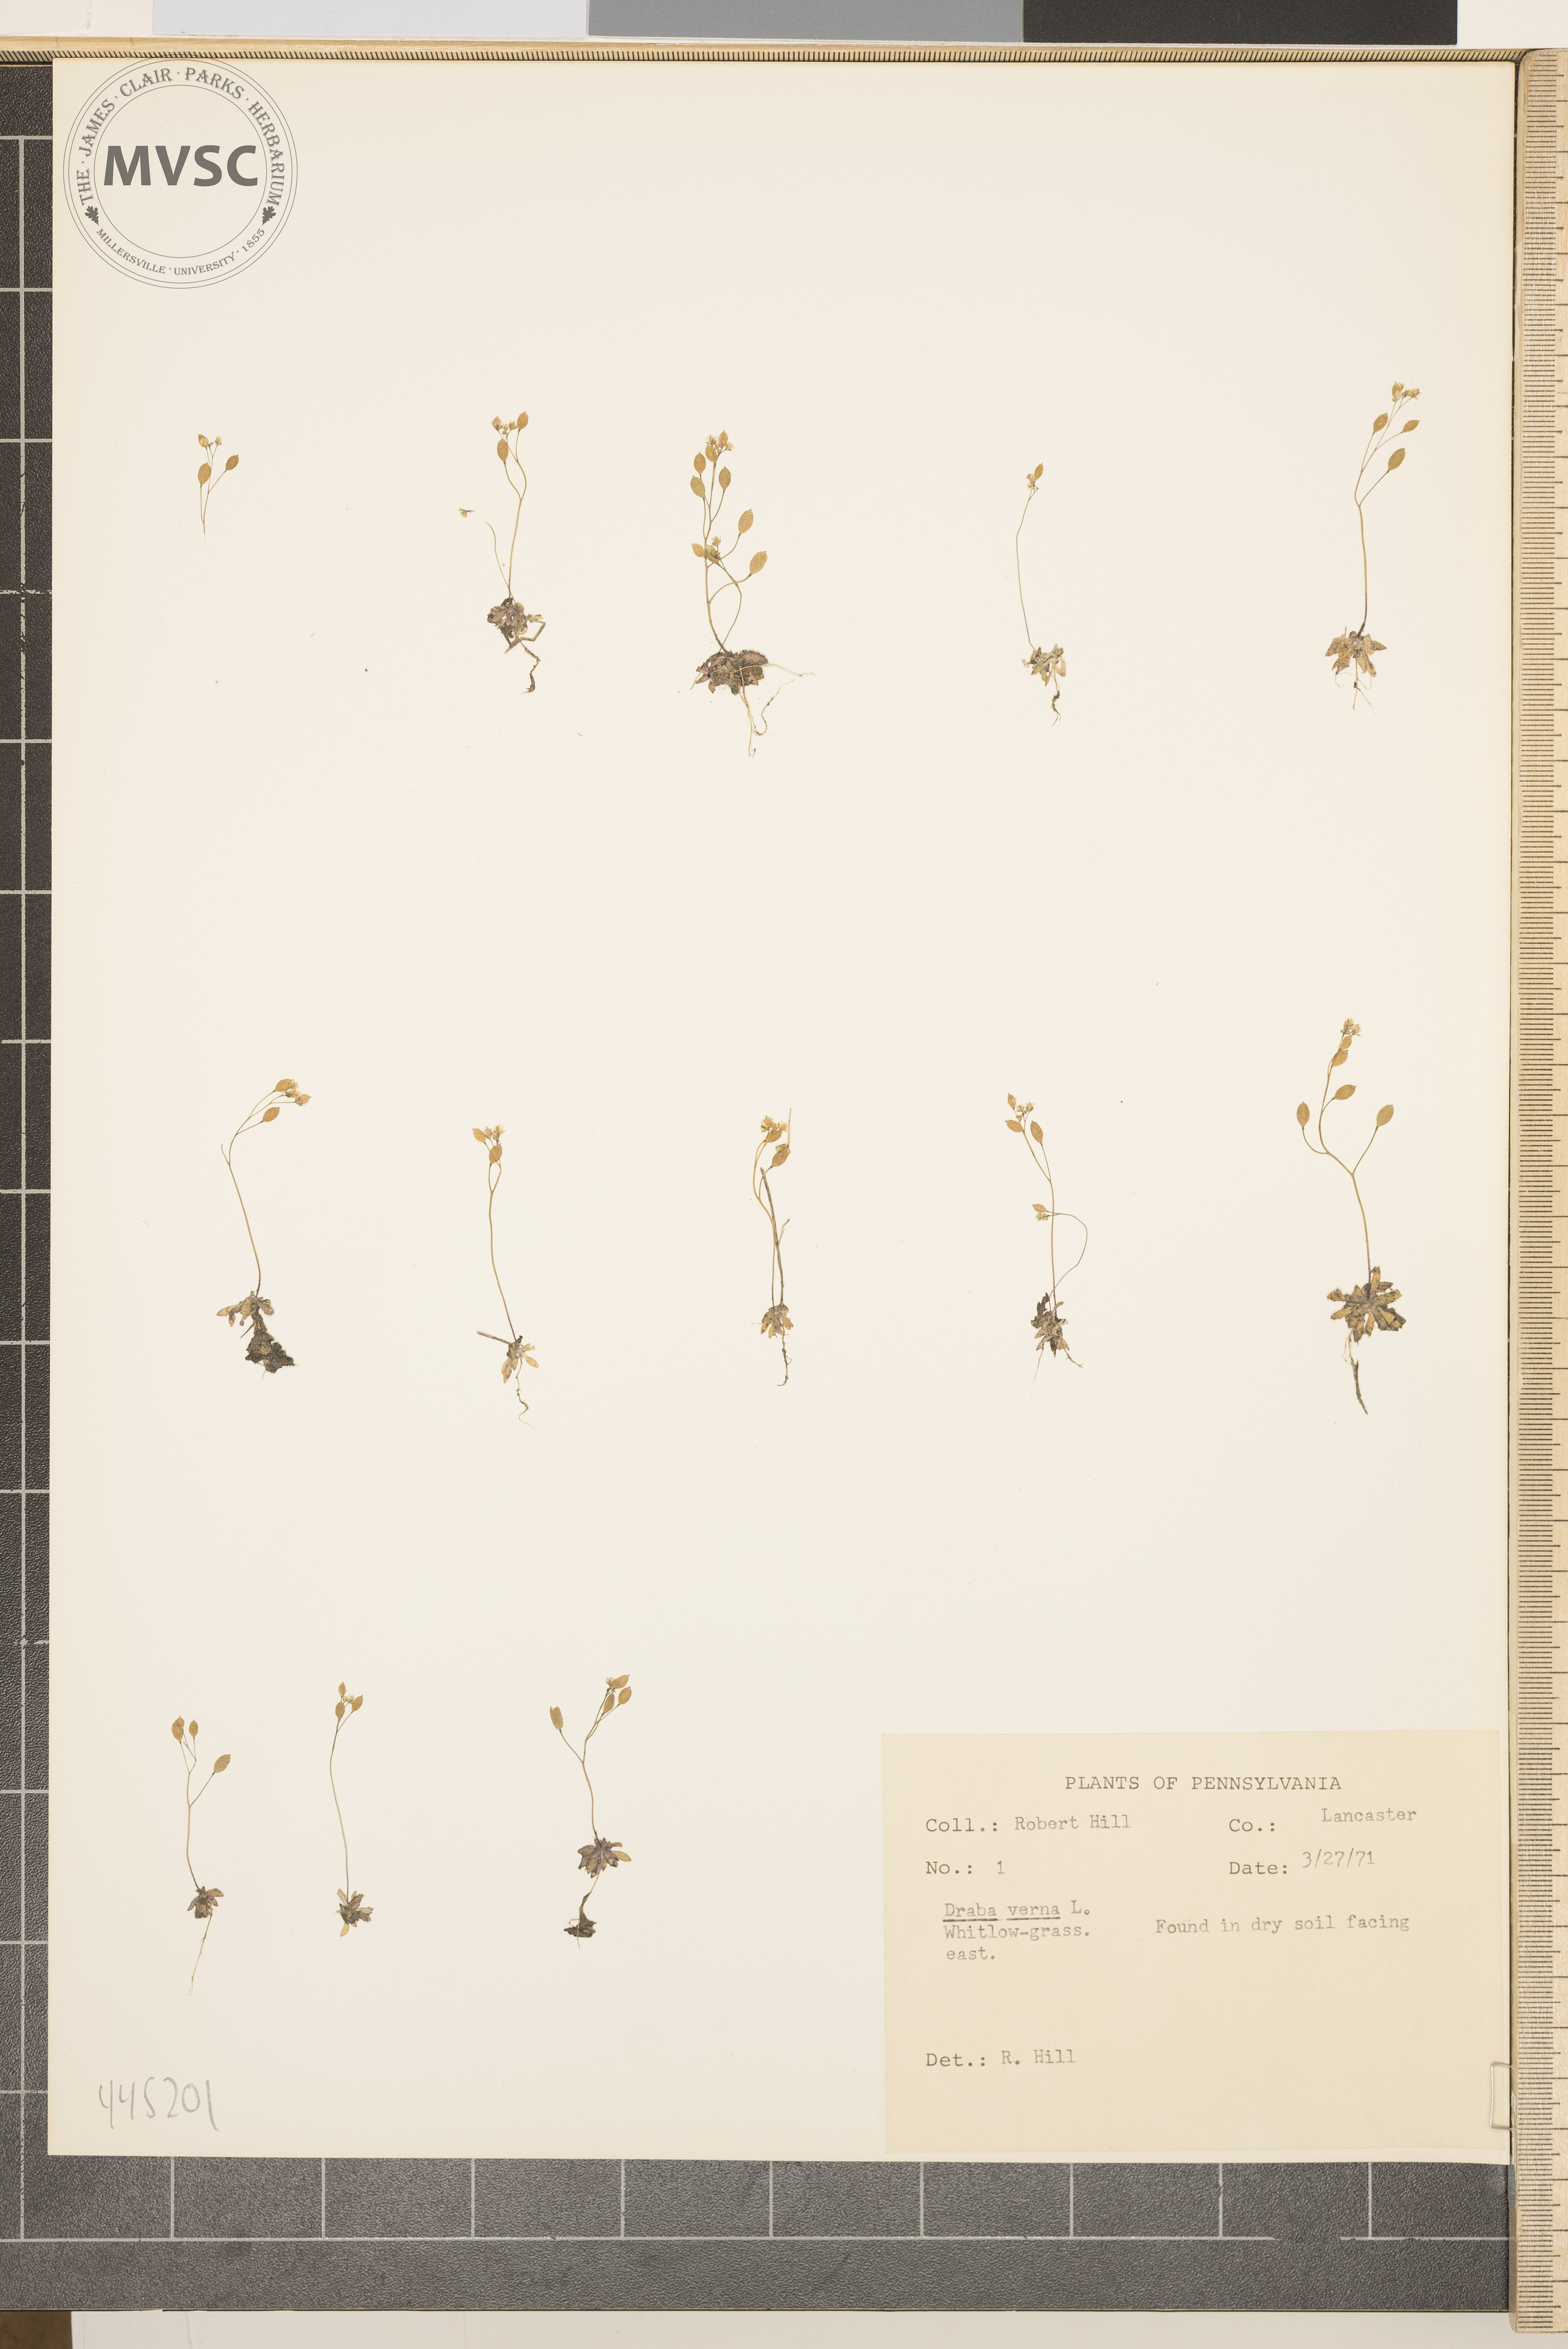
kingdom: Plantae
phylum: Tracheophyta
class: Magnoliopsida
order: Brassicales
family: Brassicaceae
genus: Draba
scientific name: Draba verna
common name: Spring draba
